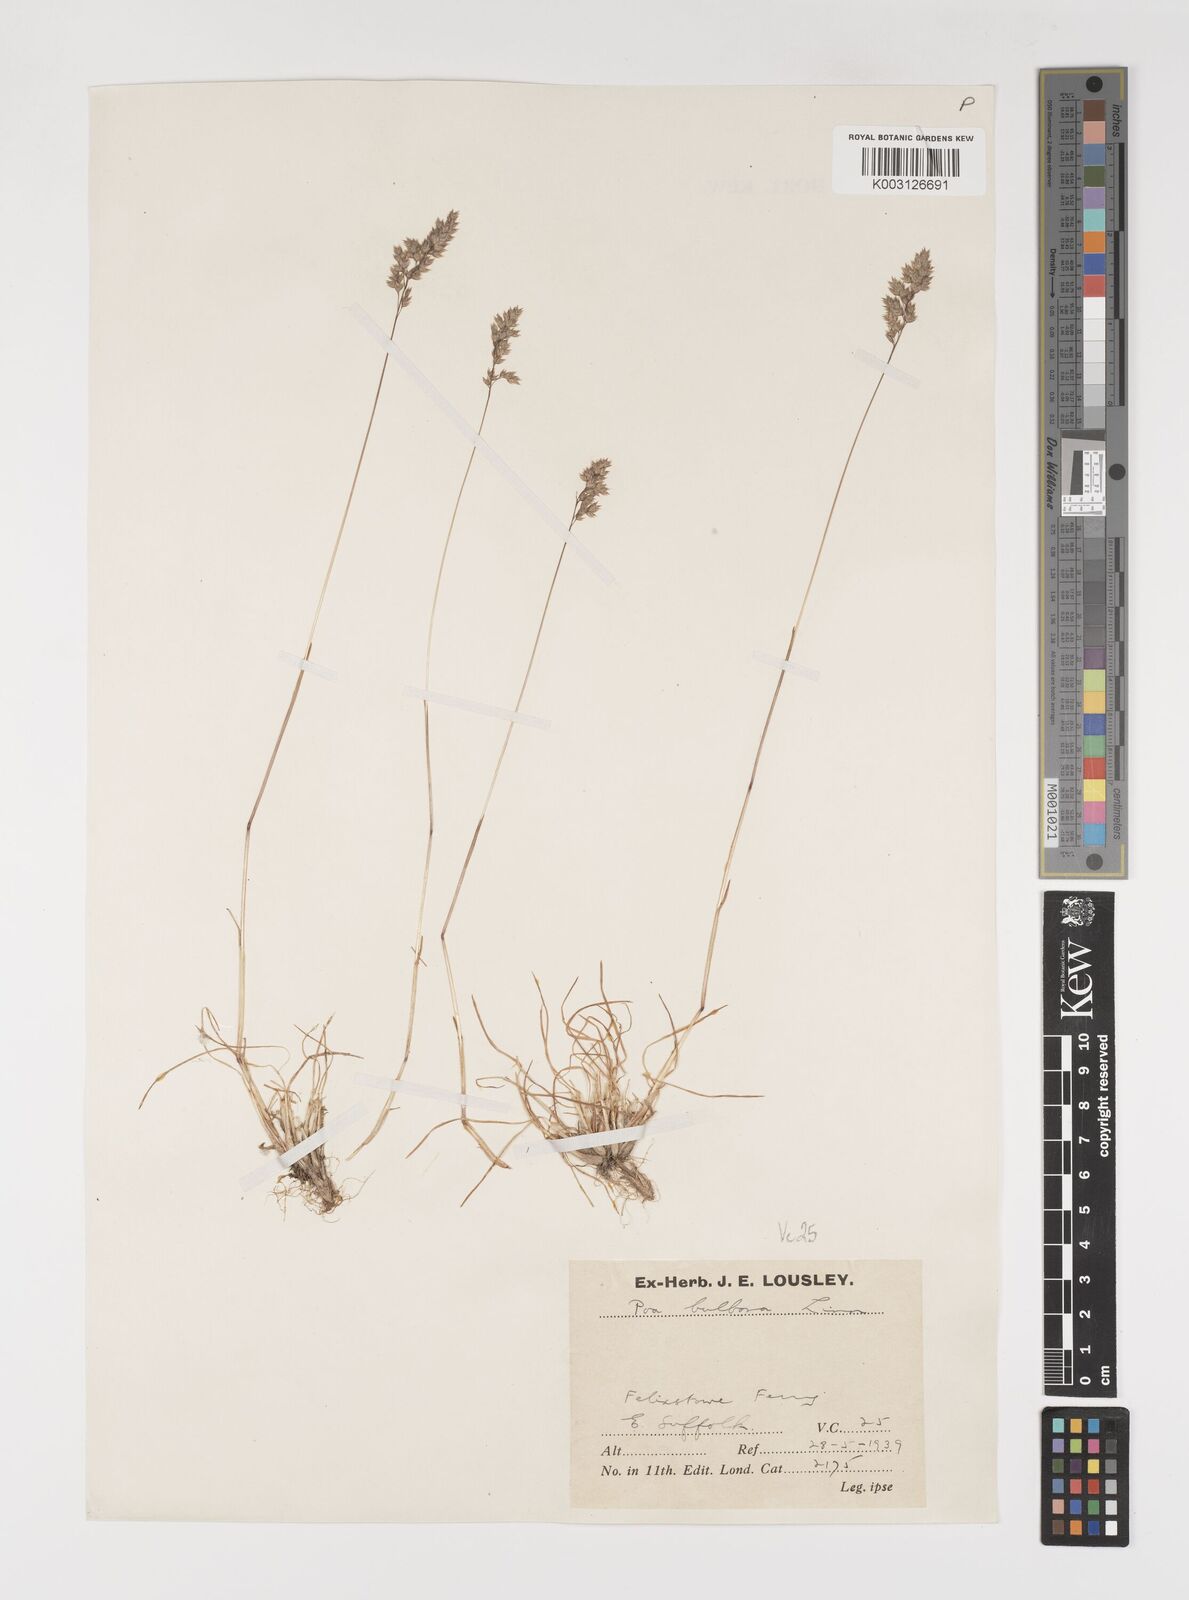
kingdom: Plantae
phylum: Tracheophyta
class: Liliopsida
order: Poales
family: Poaceae
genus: Poa
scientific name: Poa bulbosa
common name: Bulbous bluegrass
